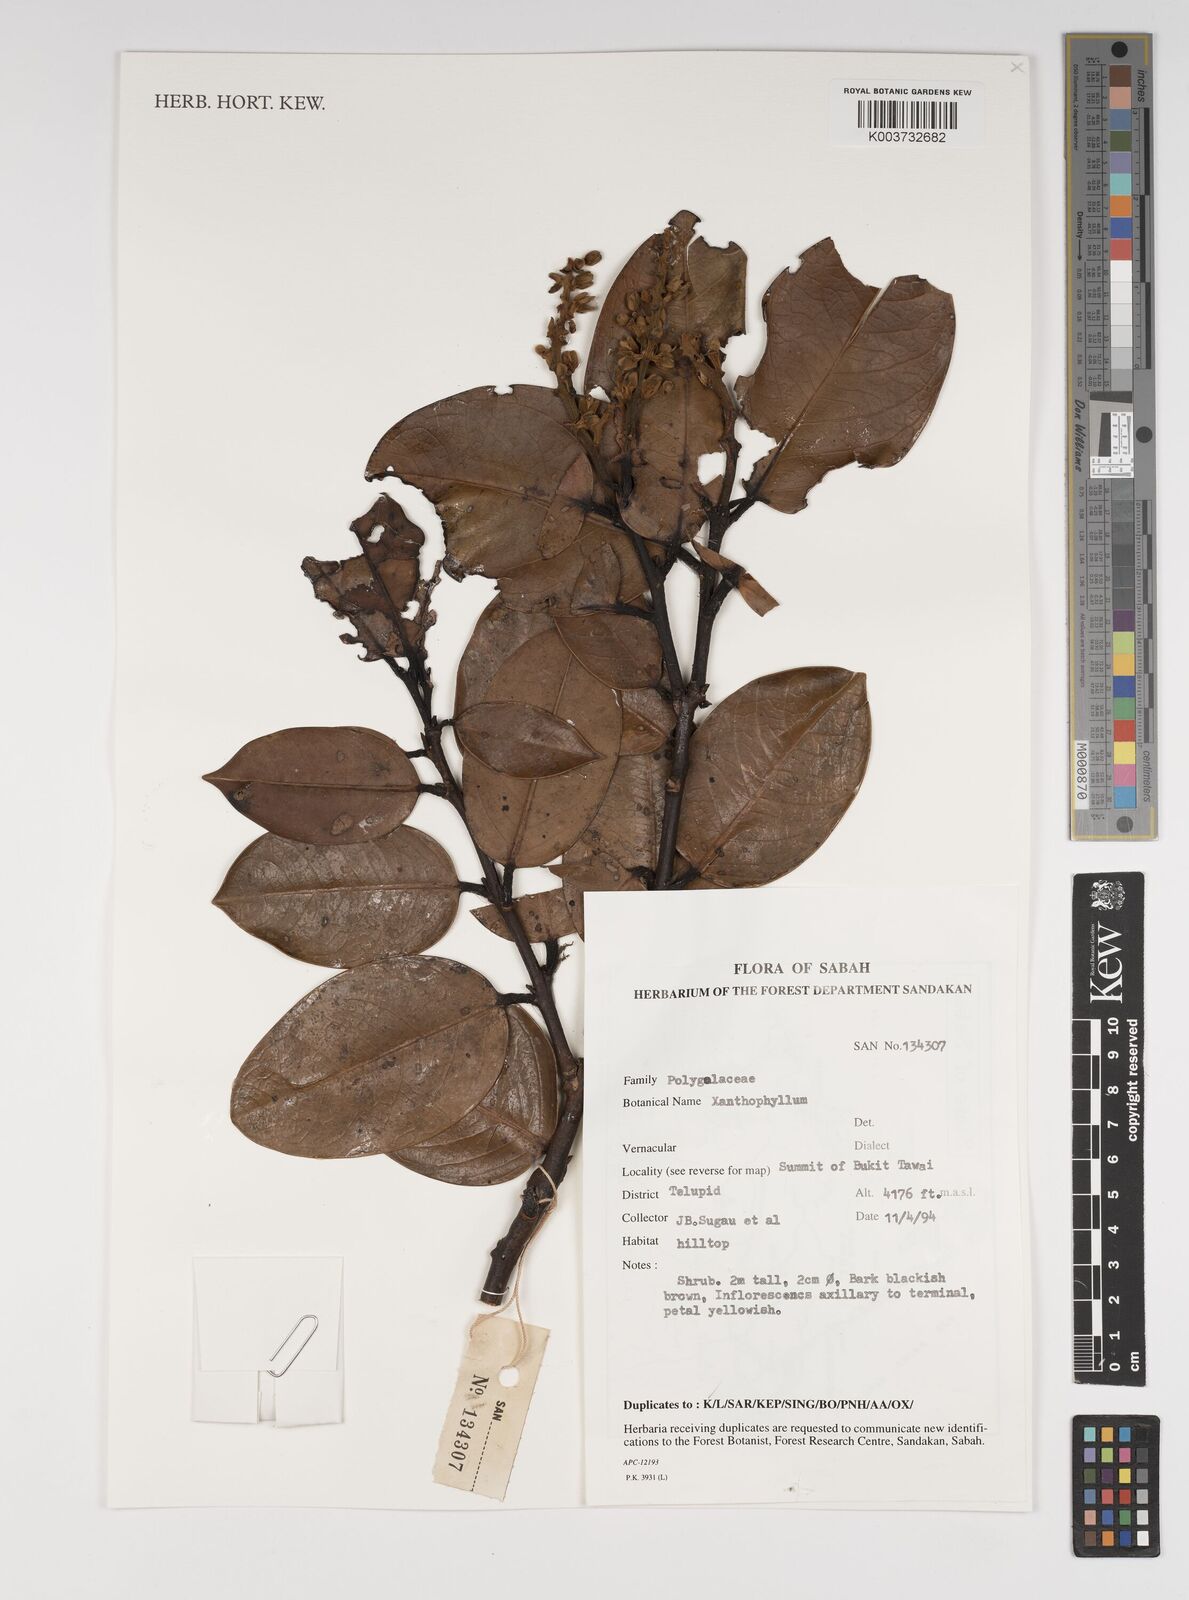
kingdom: Plantae
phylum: Tracheophyta
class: Magnoliopsida
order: Fabales
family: Polygalaceae
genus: Xanthophyllum
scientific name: Xanthophyllum
